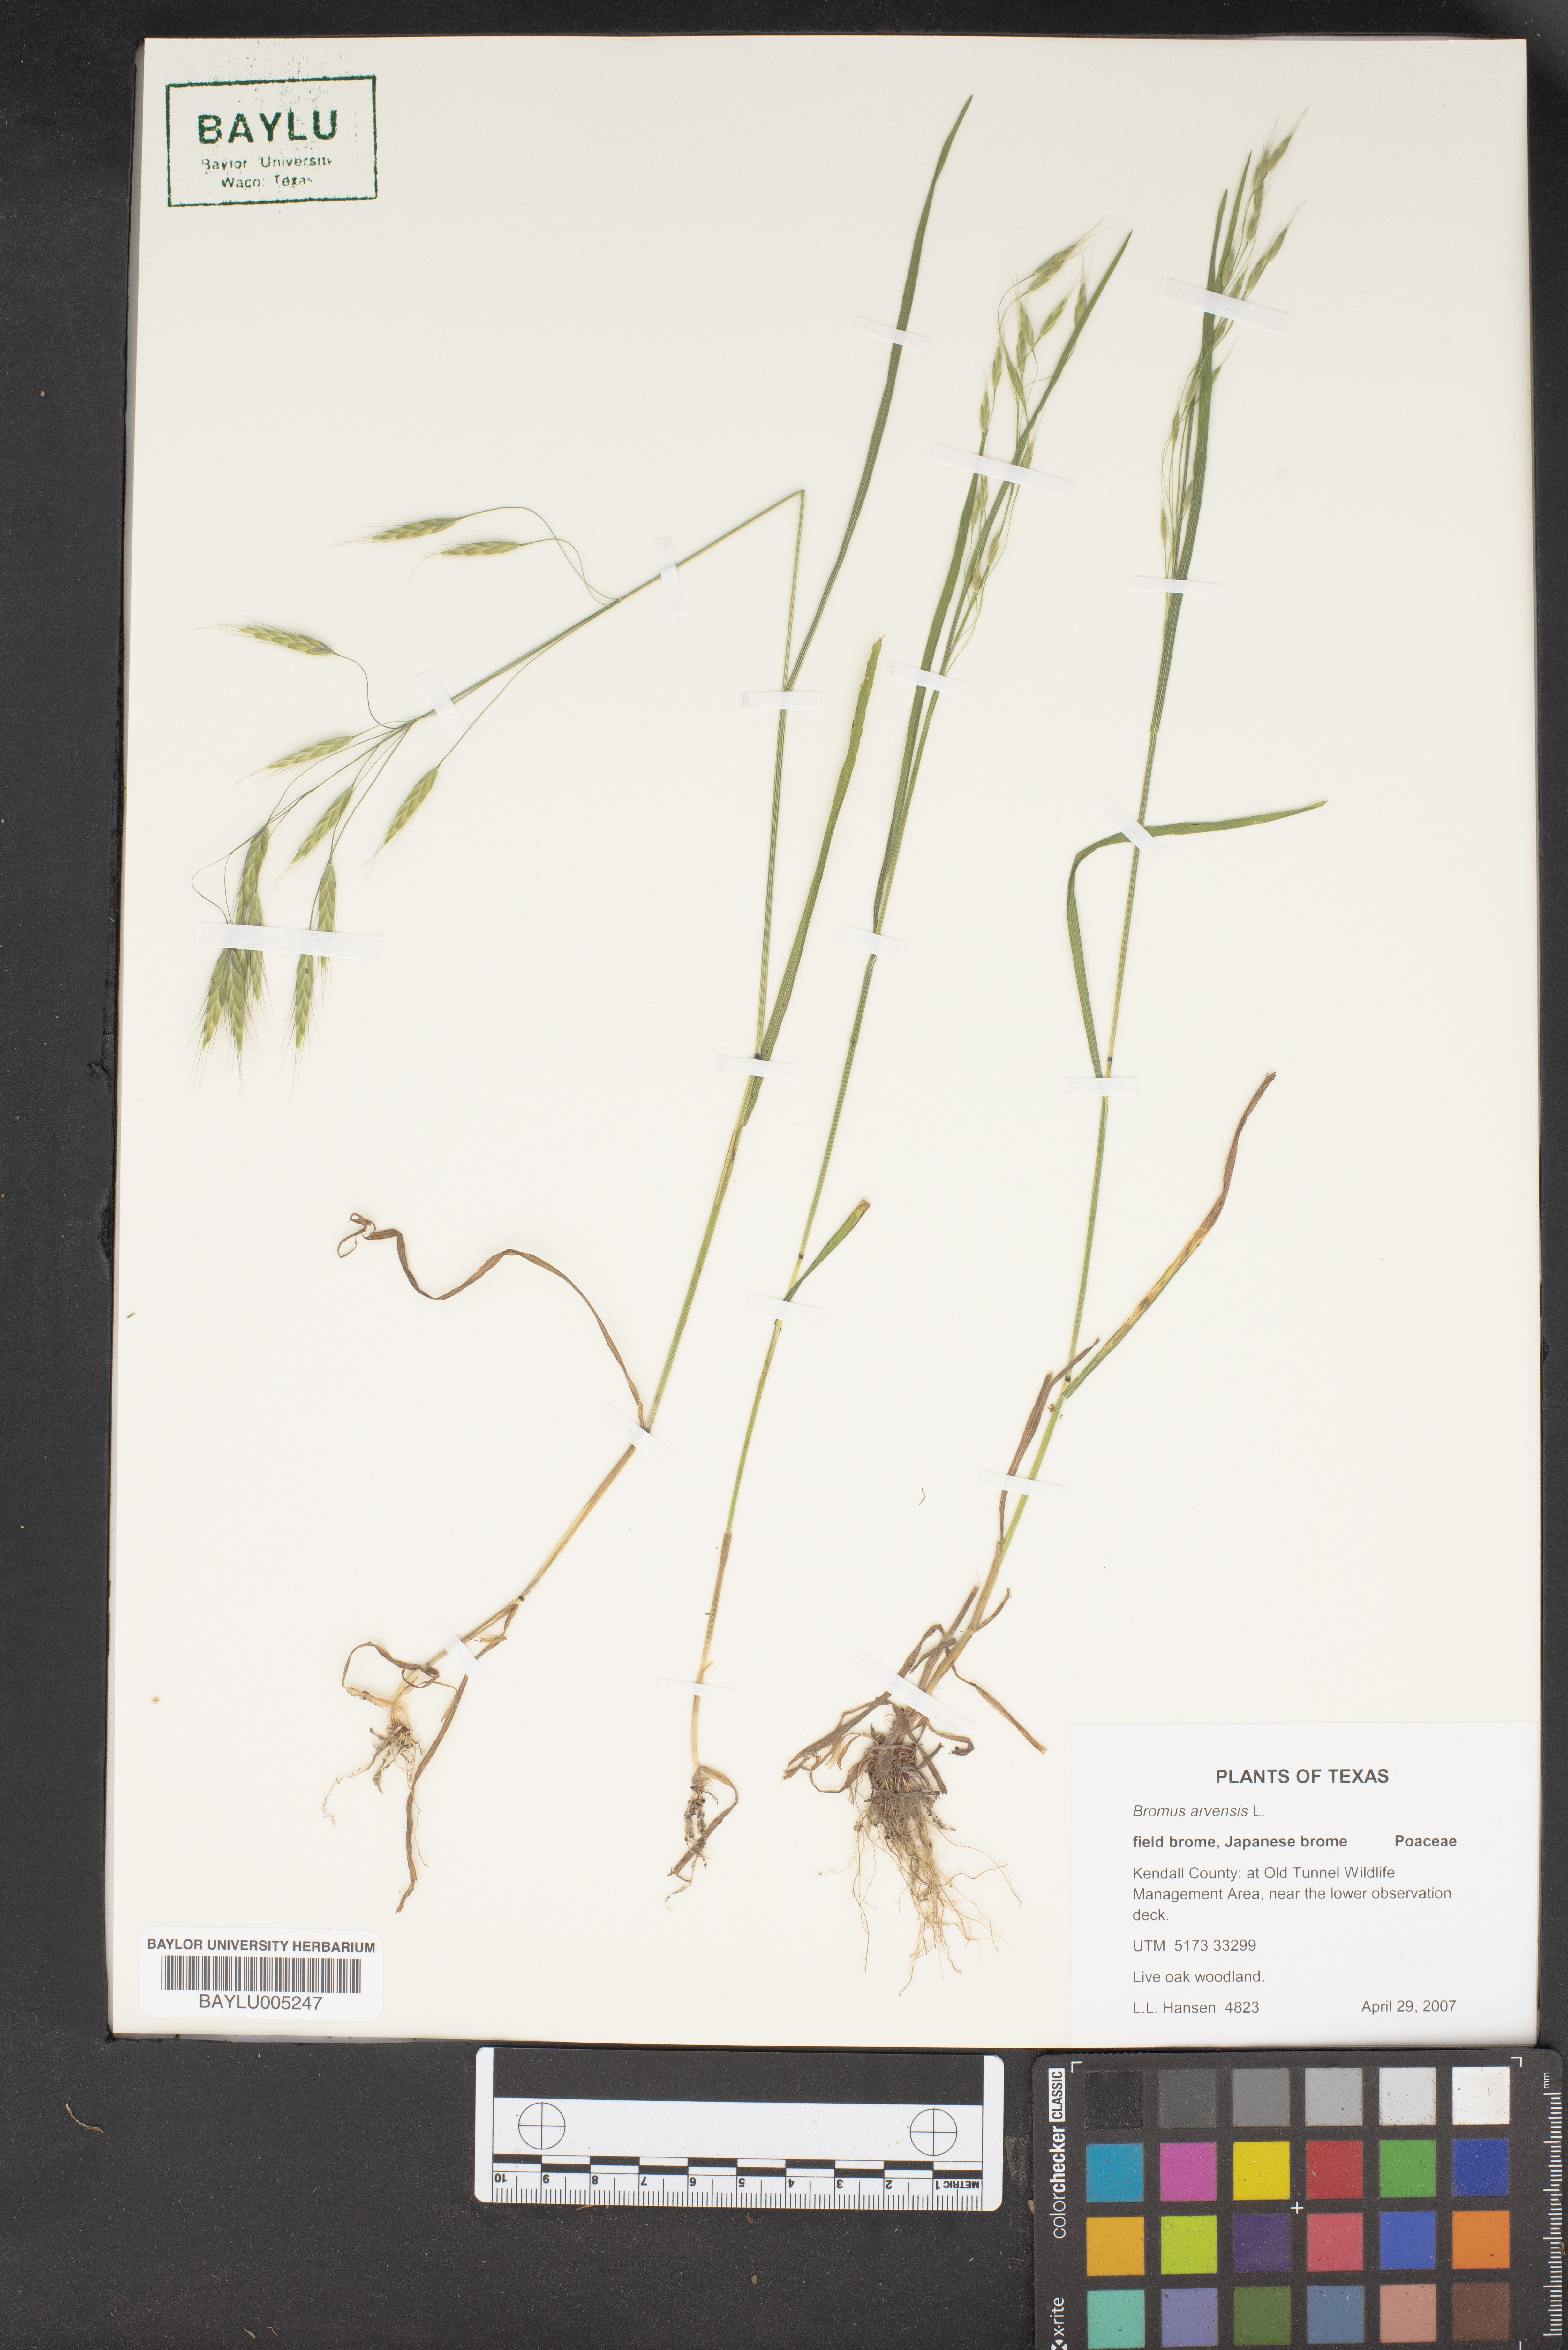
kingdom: Plantae
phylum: Tracheophyta
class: Liliopsida
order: Poales
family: Poaceae
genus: Bromus
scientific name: Bromus arvensis
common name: Field brome
